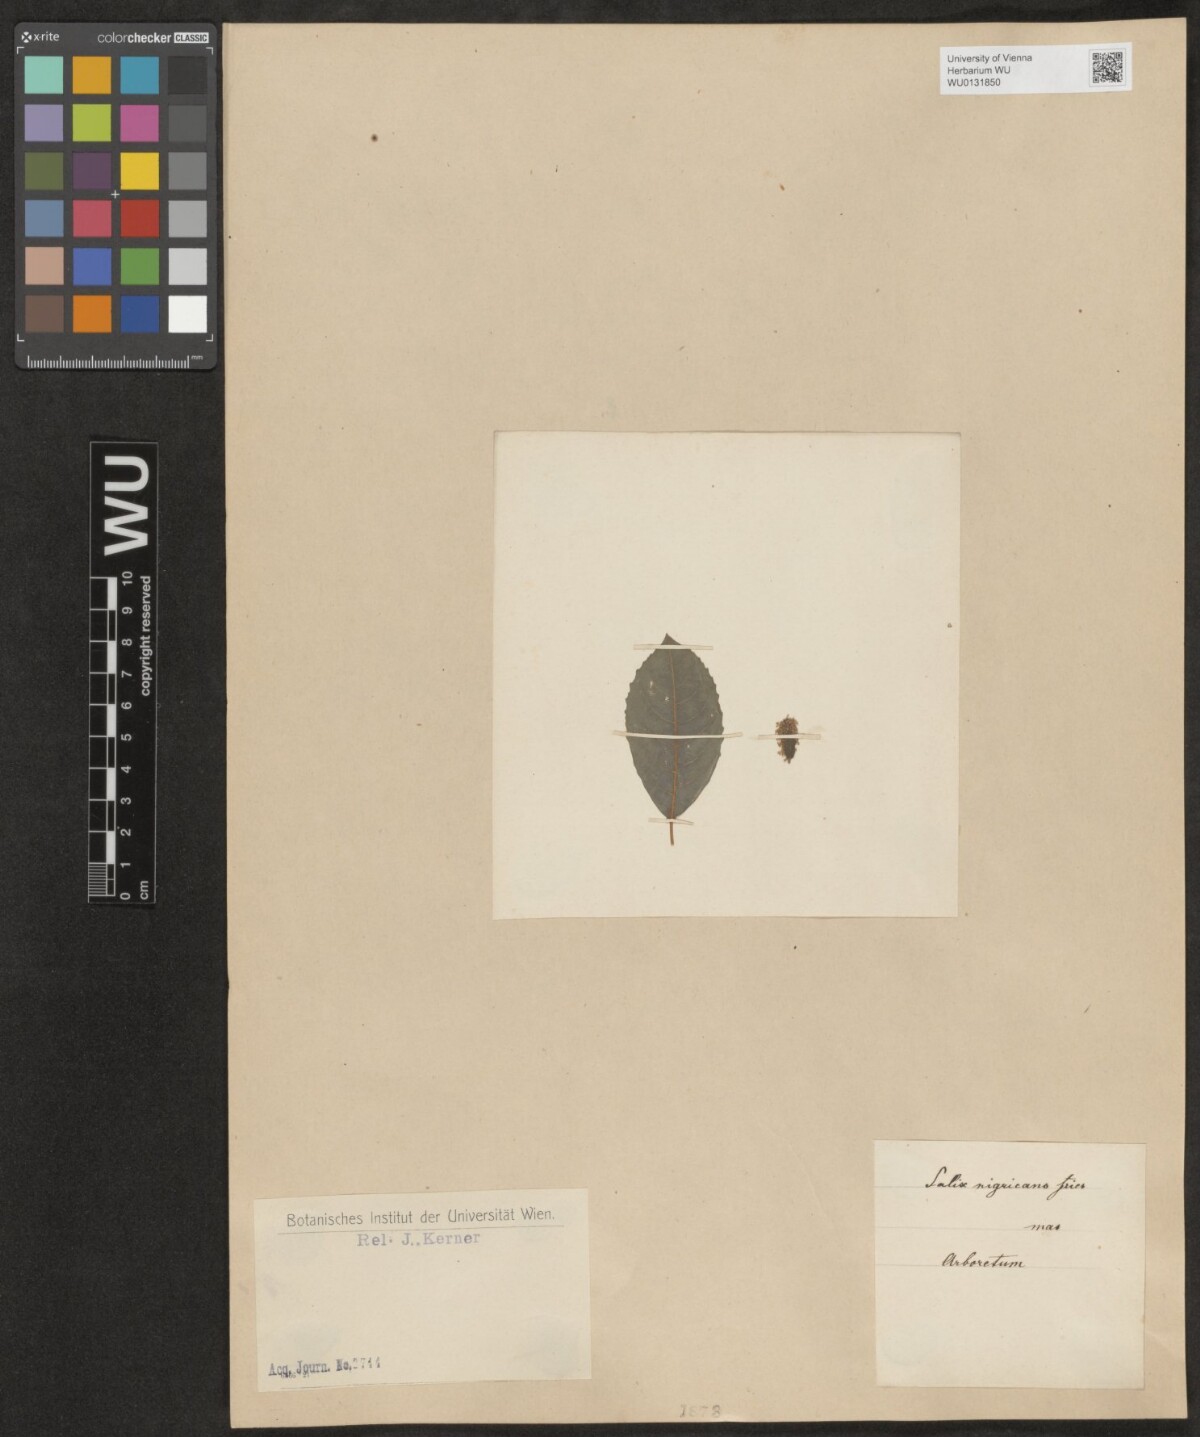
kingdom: Plantae
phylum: Tracheophyta
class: Magnoliopsida
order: Malpighiales
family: Salicaceae
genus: Salix
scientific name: Salix myrsinifolia
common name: Dark-leaved willow
